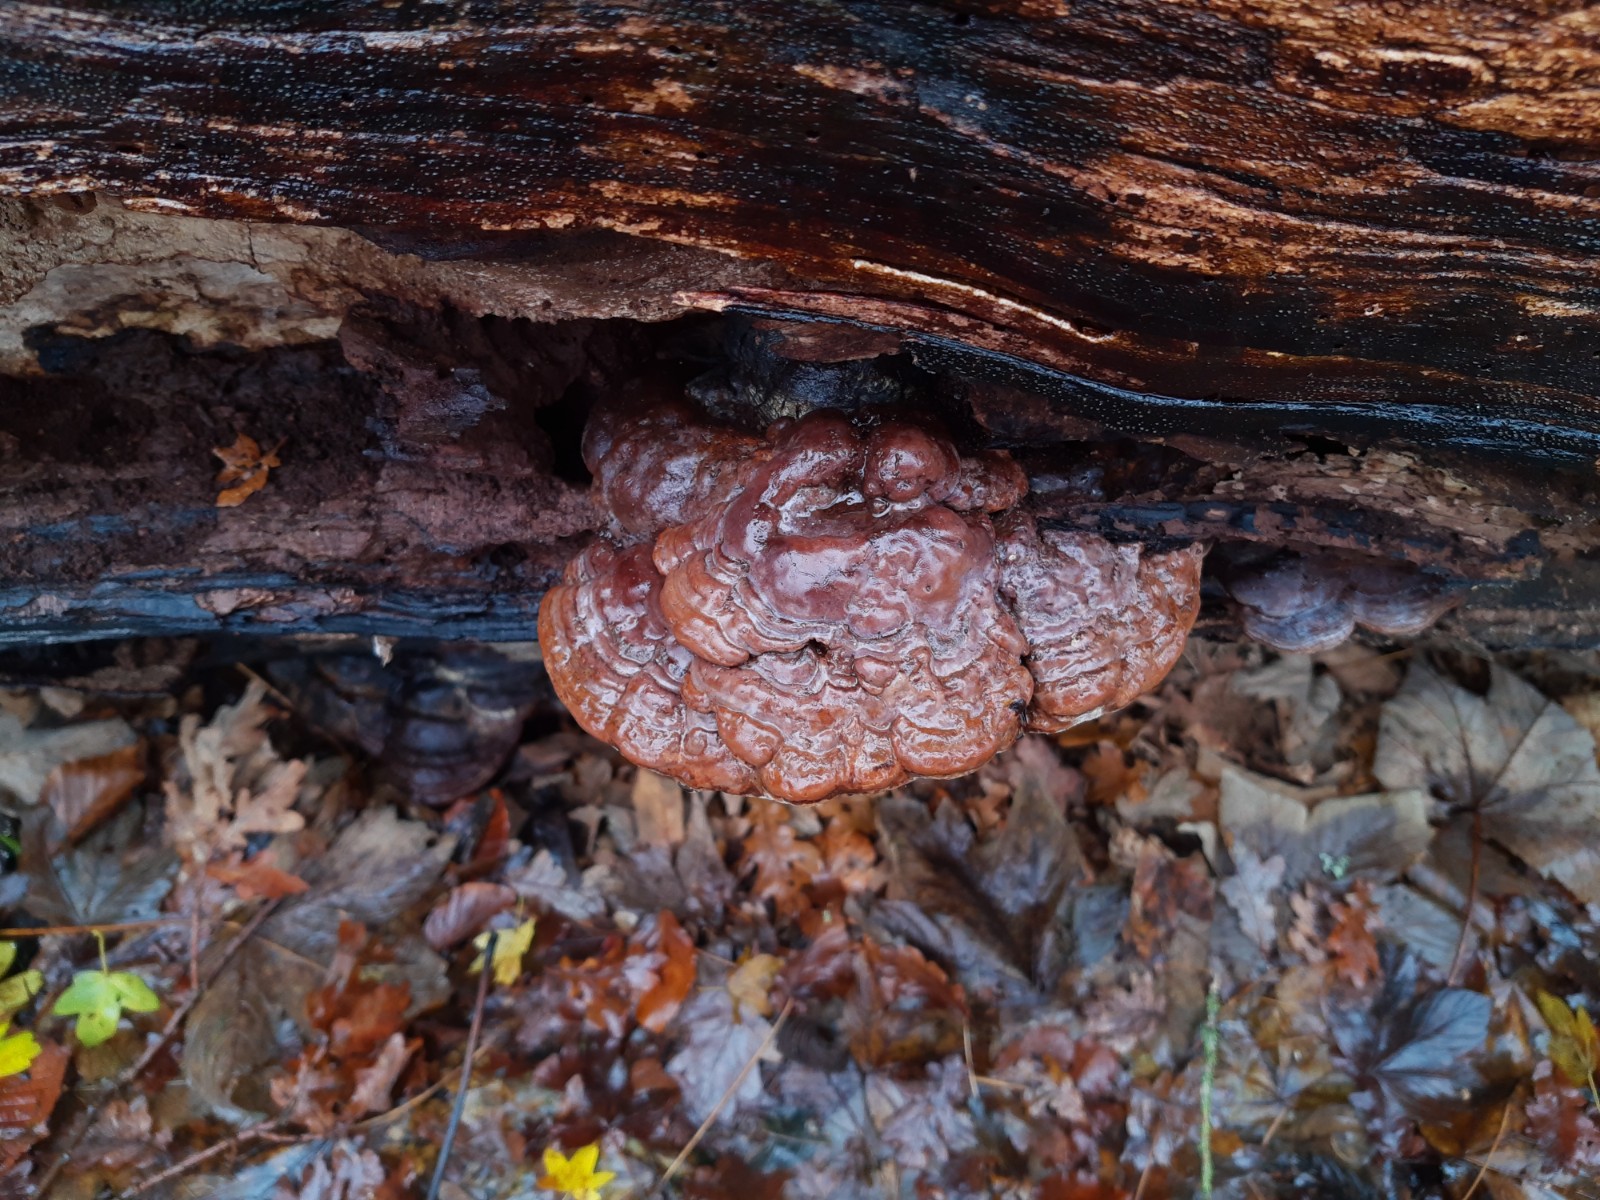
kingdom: Fungi
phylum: Basidiomycota
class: Agaricomycetes
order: Polyporales
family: Polyporaceae
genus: Ganoderma
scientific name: Ganoderma applanatum
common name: flad lakporesvamp
